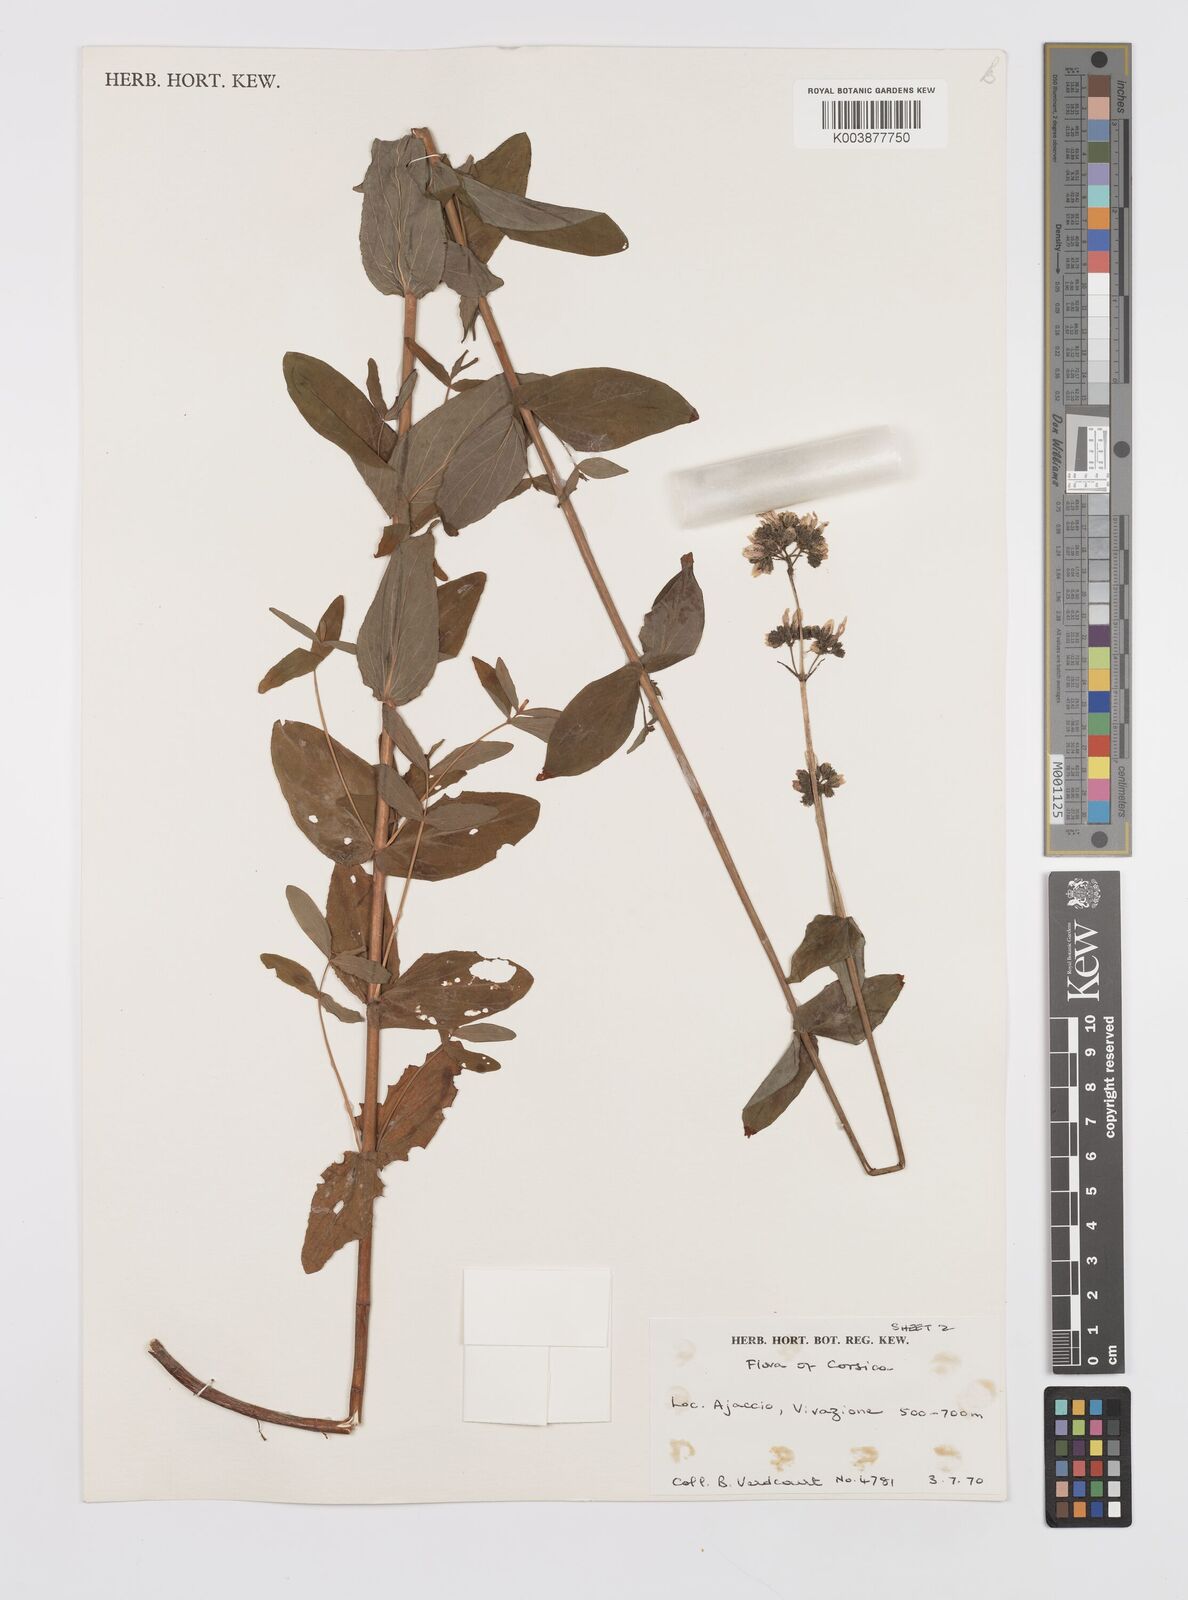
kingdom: Plantae
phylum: Tracheophyta
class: Magnoliopsida
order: Malpighiales
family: Hypericaceae
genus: Hypericum
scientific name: Hypericum montanum
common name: Pale st. john's-wort
